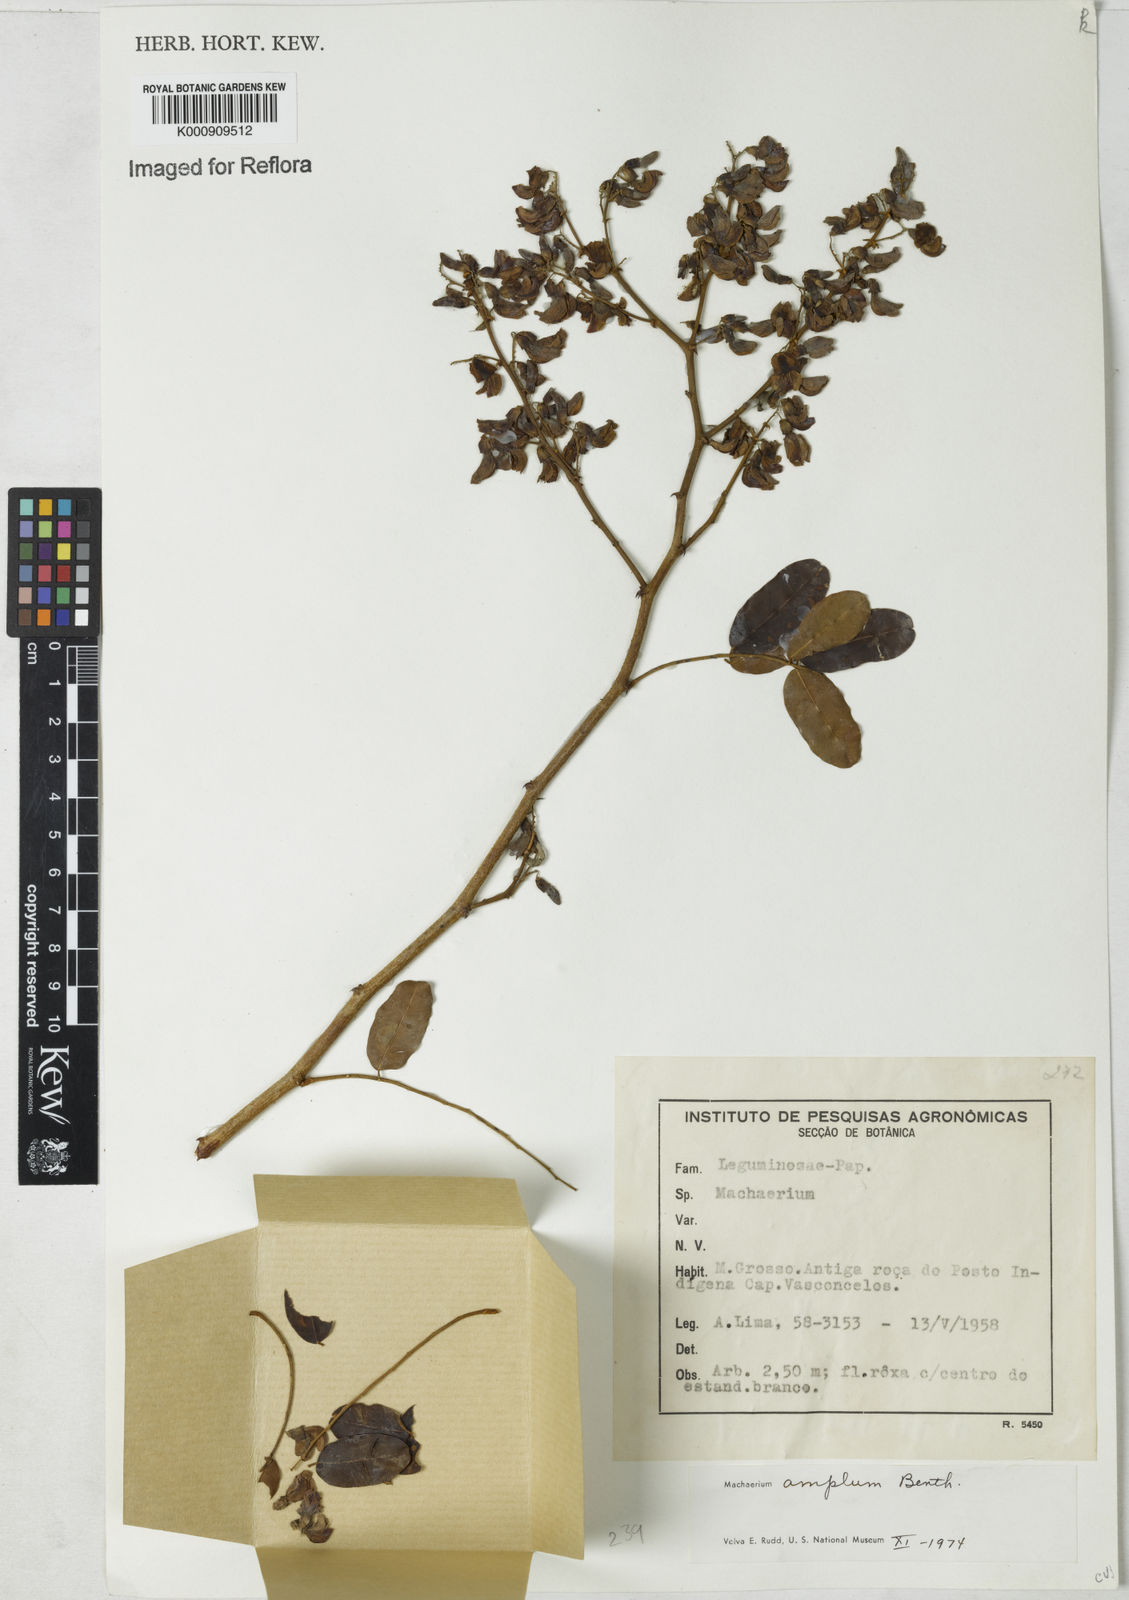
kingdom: Plantae
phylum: Tracheophyta
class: Magnoliopsida
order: Fabales
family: Fabaceae
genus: Machaerium
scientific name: Machaerium amplum
